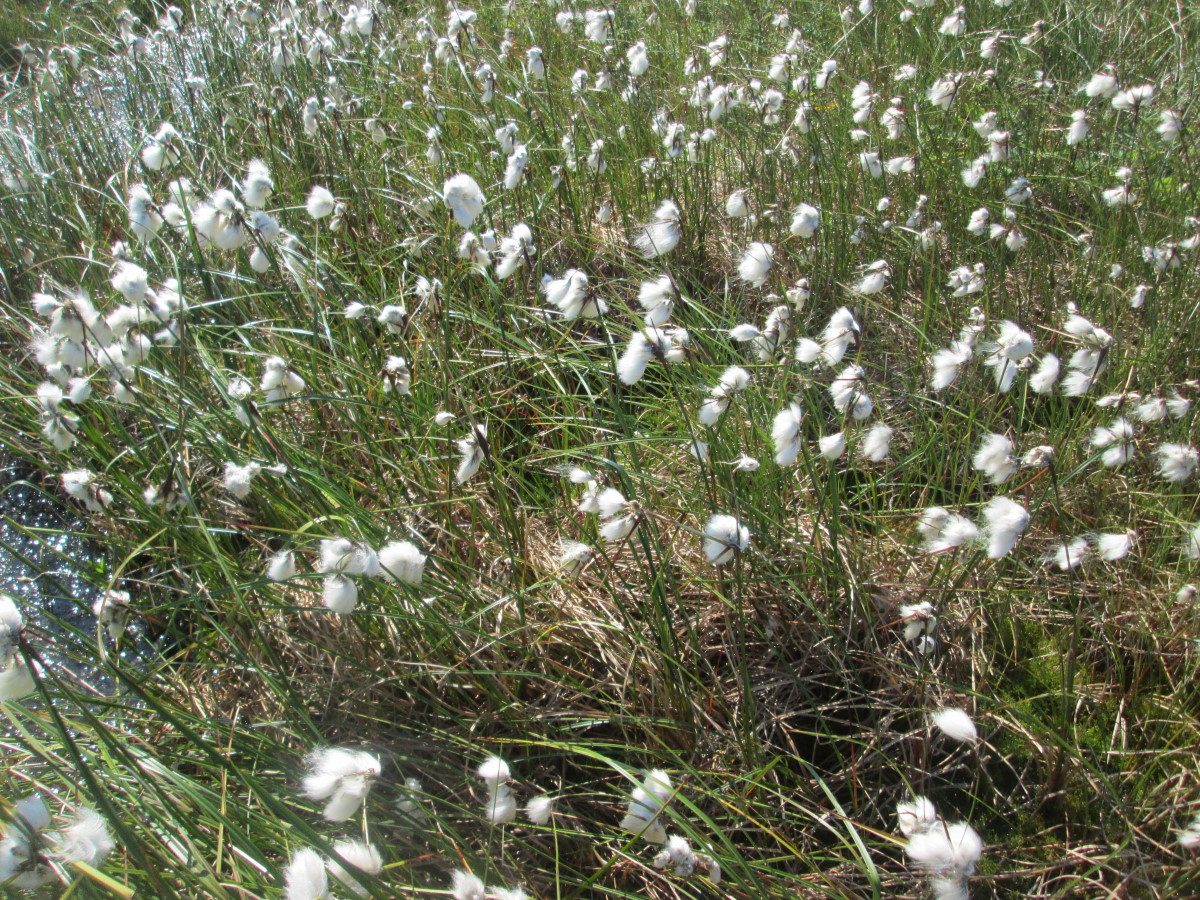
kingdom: Plantae
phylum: Tracheophyta
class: Liliopsida
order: Poales
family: Cyperaceae
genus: Eriophorum
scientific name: Eriophorum angustifolium
